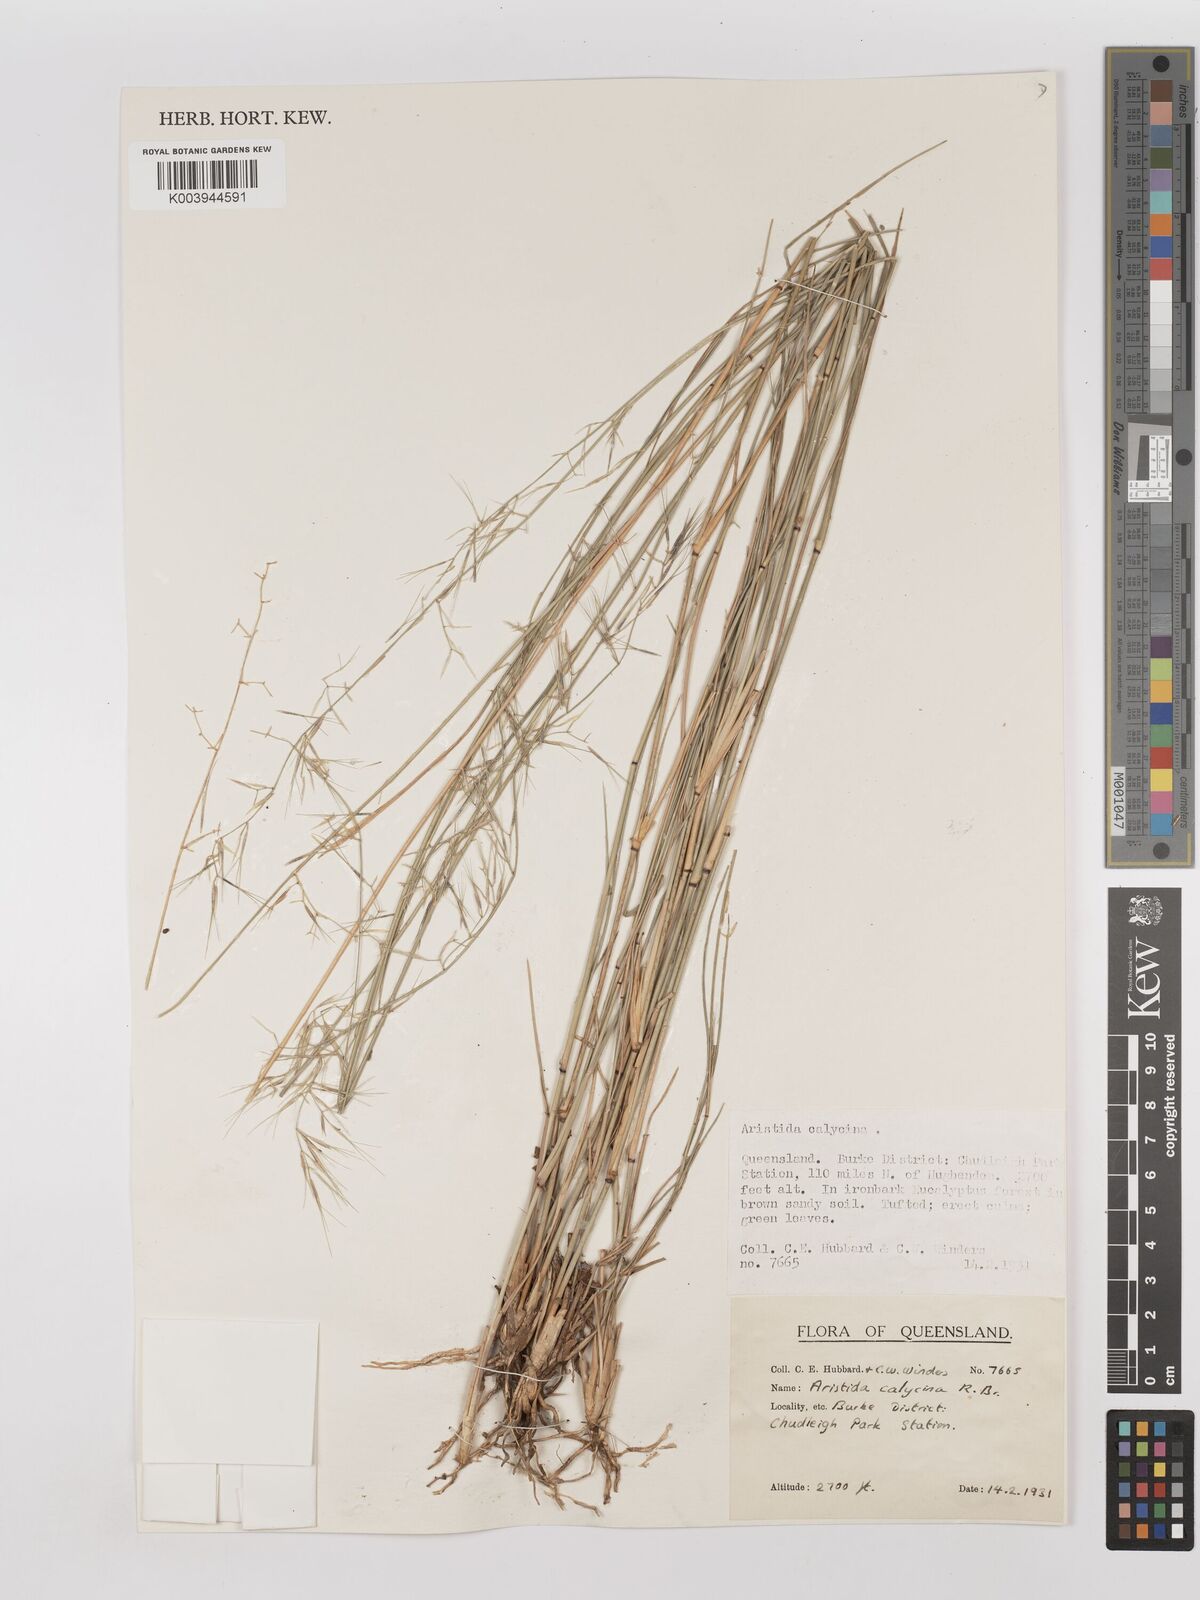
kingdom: Plantae
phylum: Tracheophyta
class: Liliopsida
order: Poales
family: Poaceae
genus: Aristida
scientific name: Aristida calycina
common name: Dark wire grass
